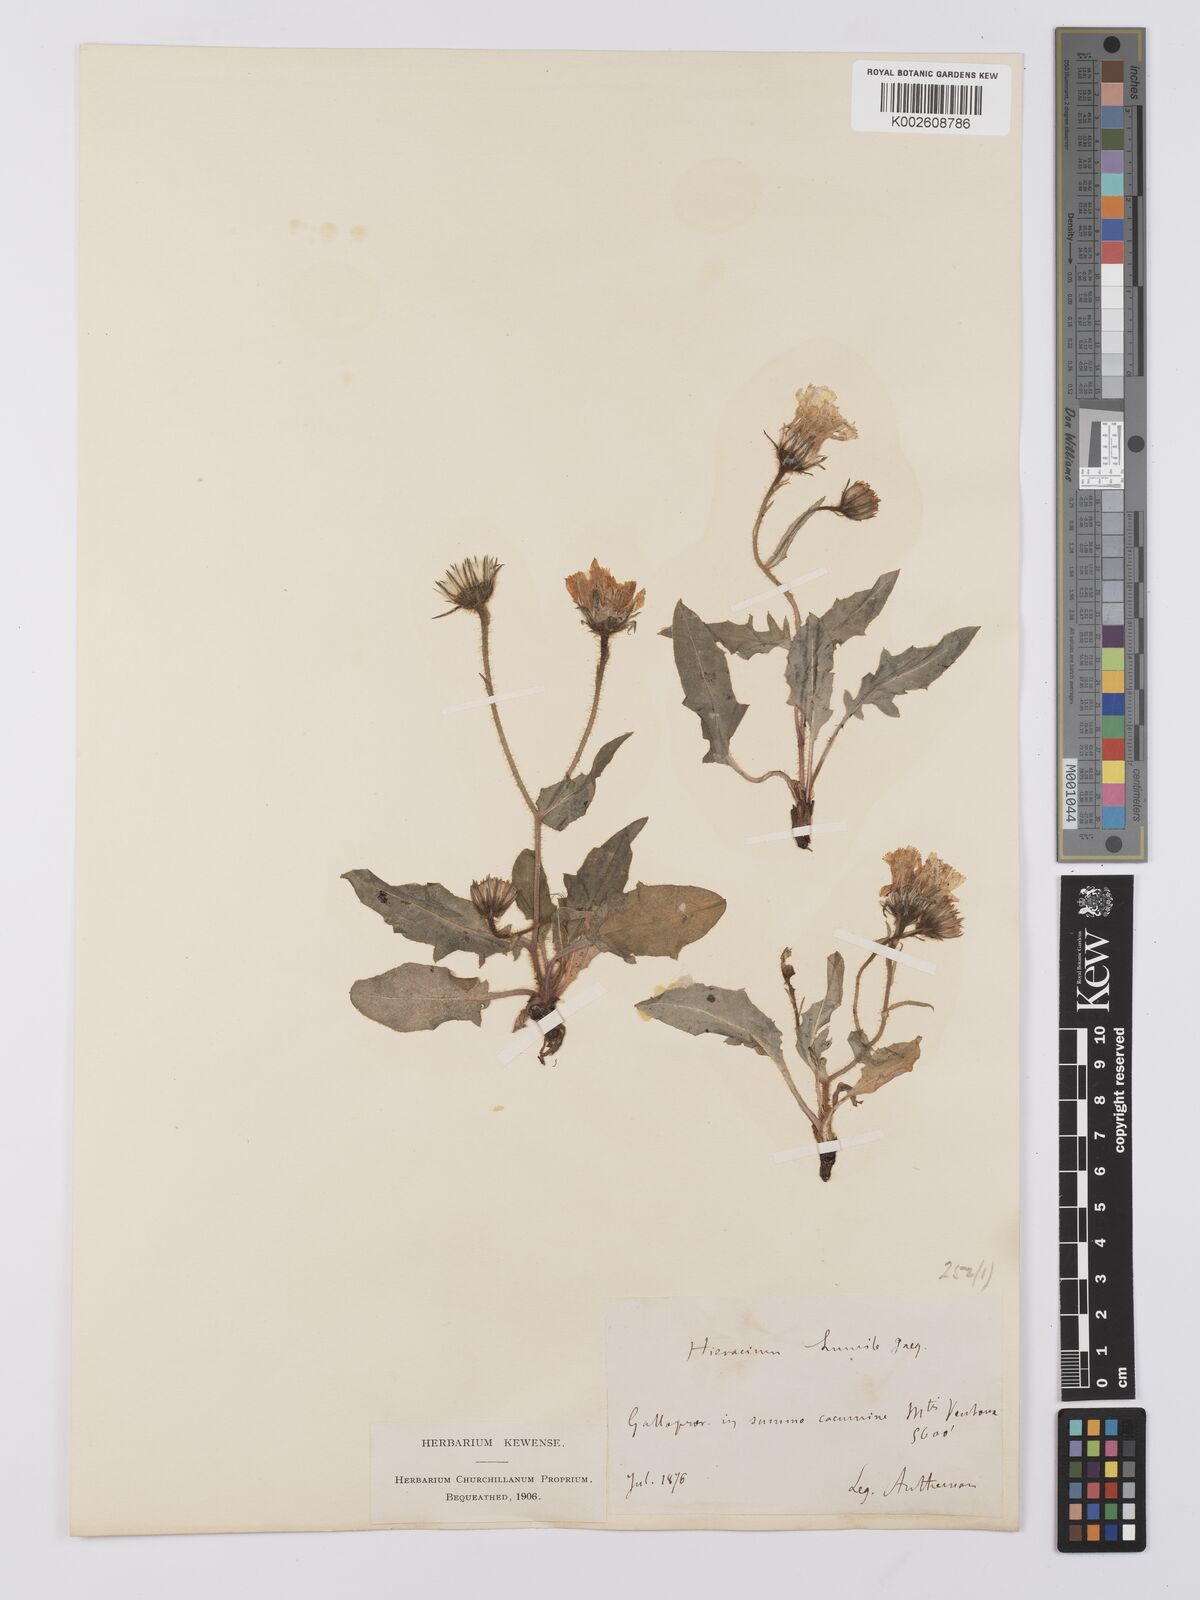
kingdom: Plantae
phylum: Tracheophyta
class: Magnoliopsida
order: Asterales
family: Asteraceae
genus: Hieracium
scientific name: Hieracium humile
